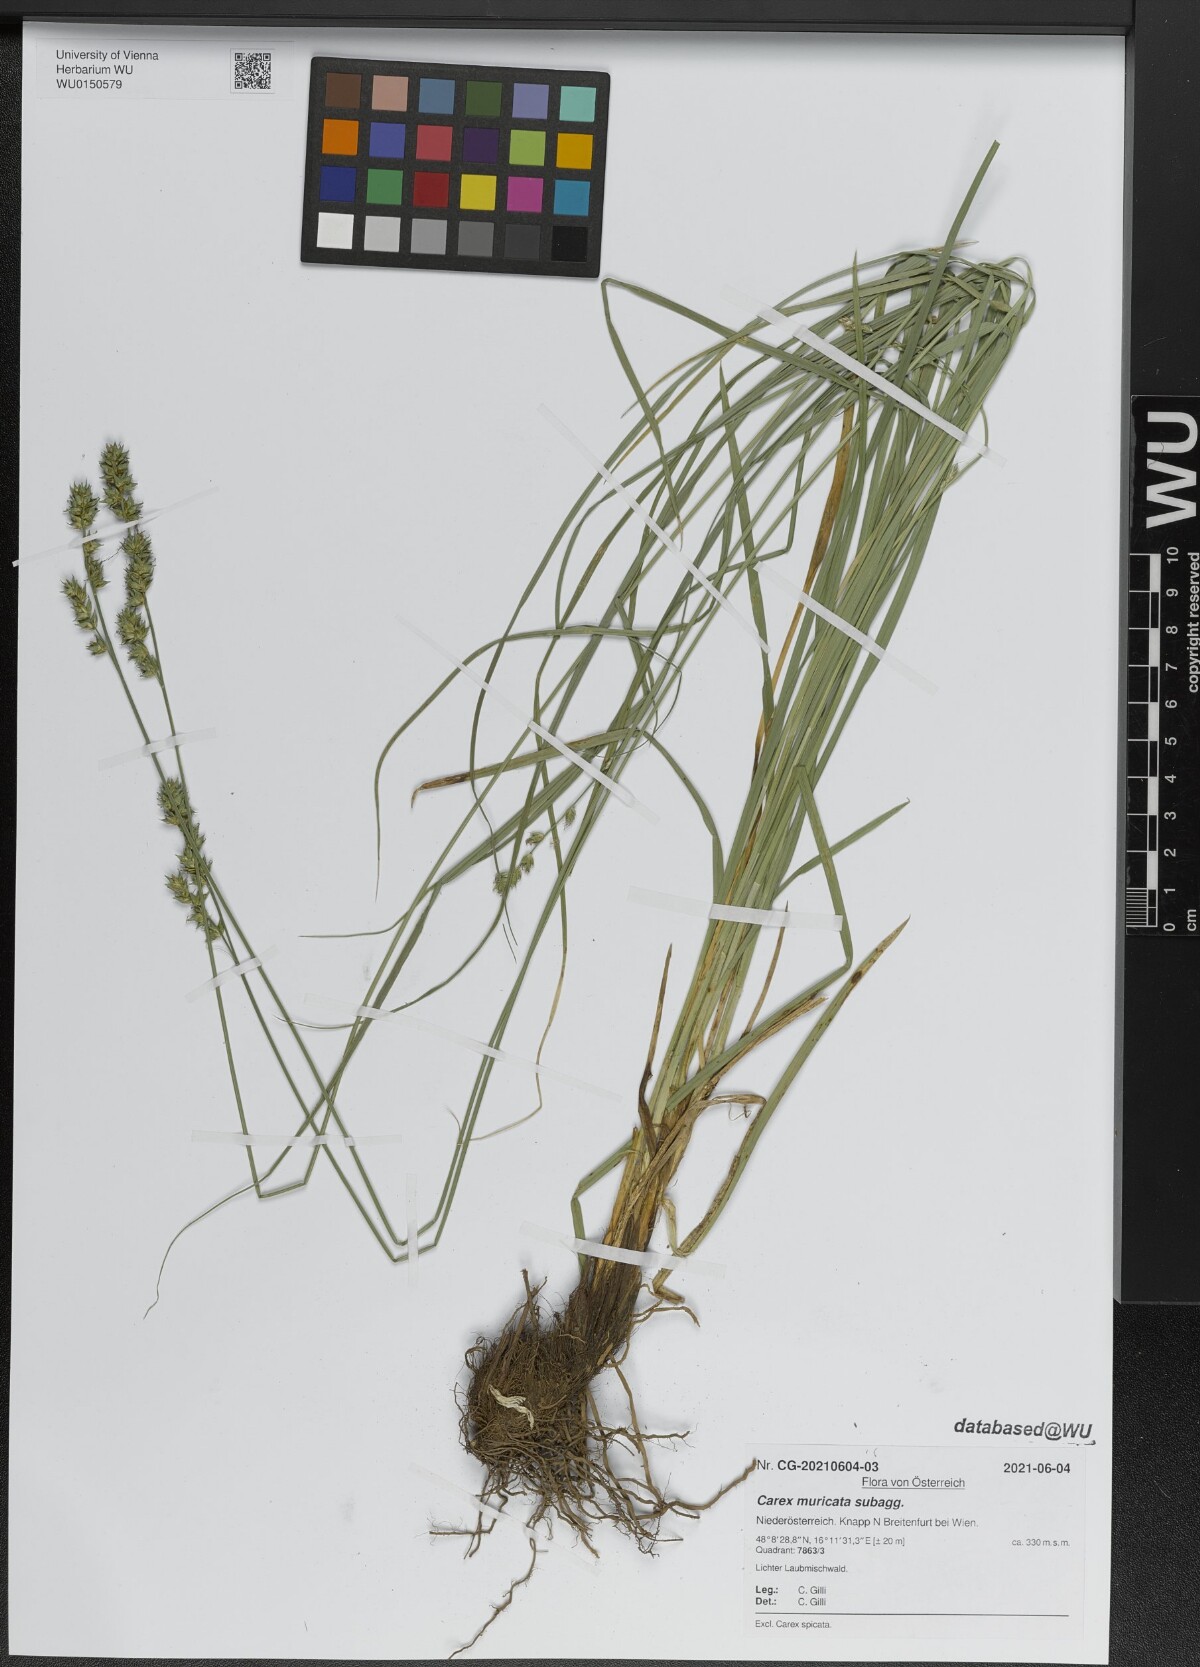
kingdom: Plantae
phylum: Tracheophyta
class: Liliopsida
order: Poales
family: Cyperaceae
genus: Carex
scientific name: Carex muricata
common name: Rough sedge
